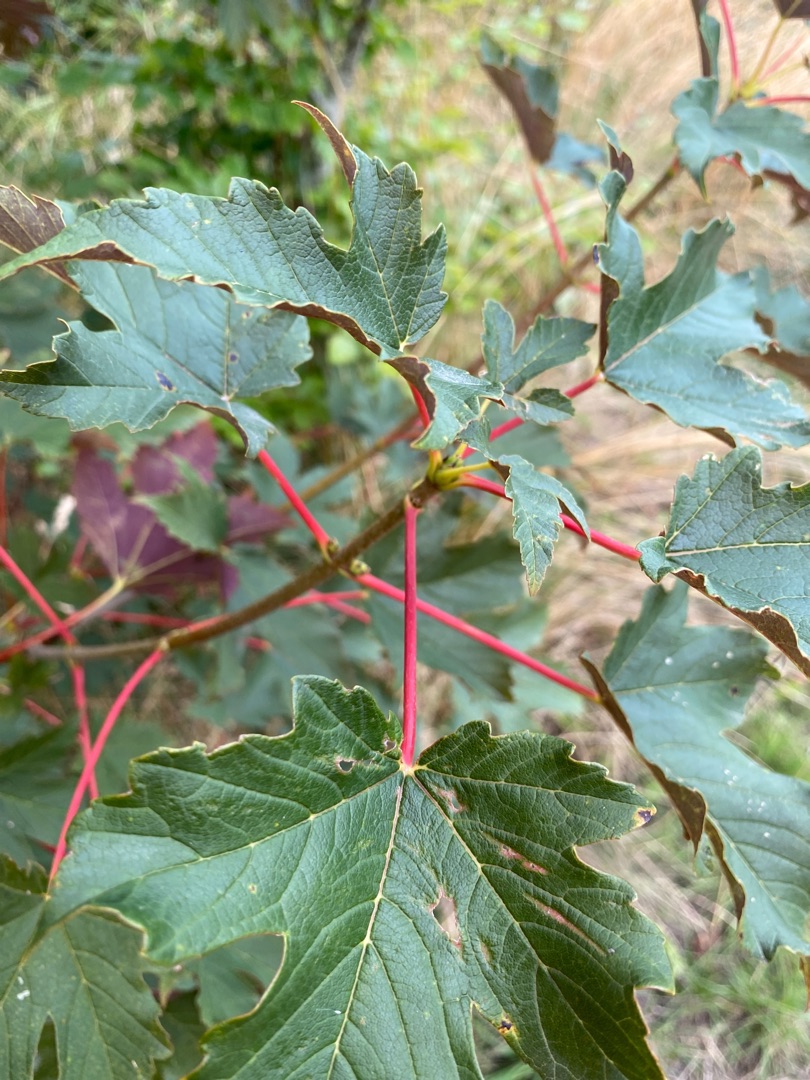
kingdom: Plantae
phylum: Tracheophyta
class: Magnoliopsida
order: Sapindales
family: Sapindaceae
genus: Acer
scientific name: Acer pseudoplatanus
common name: Ahorn
